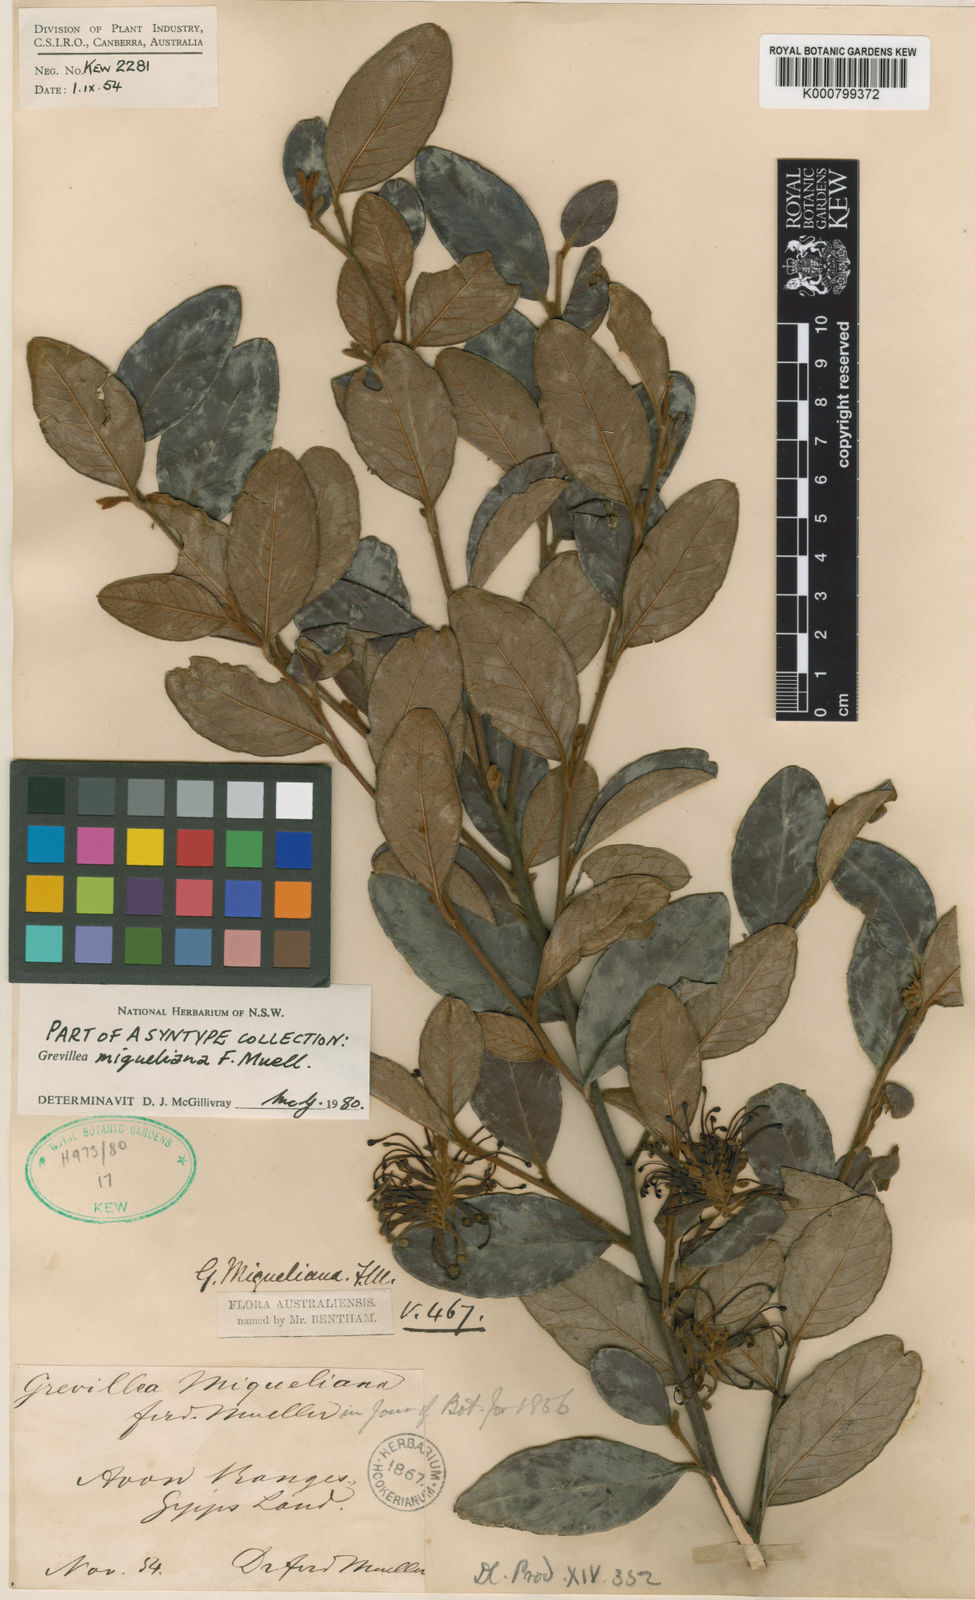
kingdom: Plantae
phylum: Tracheophyta
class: Magnoliopsida
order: Proteales
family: Proteaceae
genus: Grevillea
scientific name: Grevillea miqueliana
